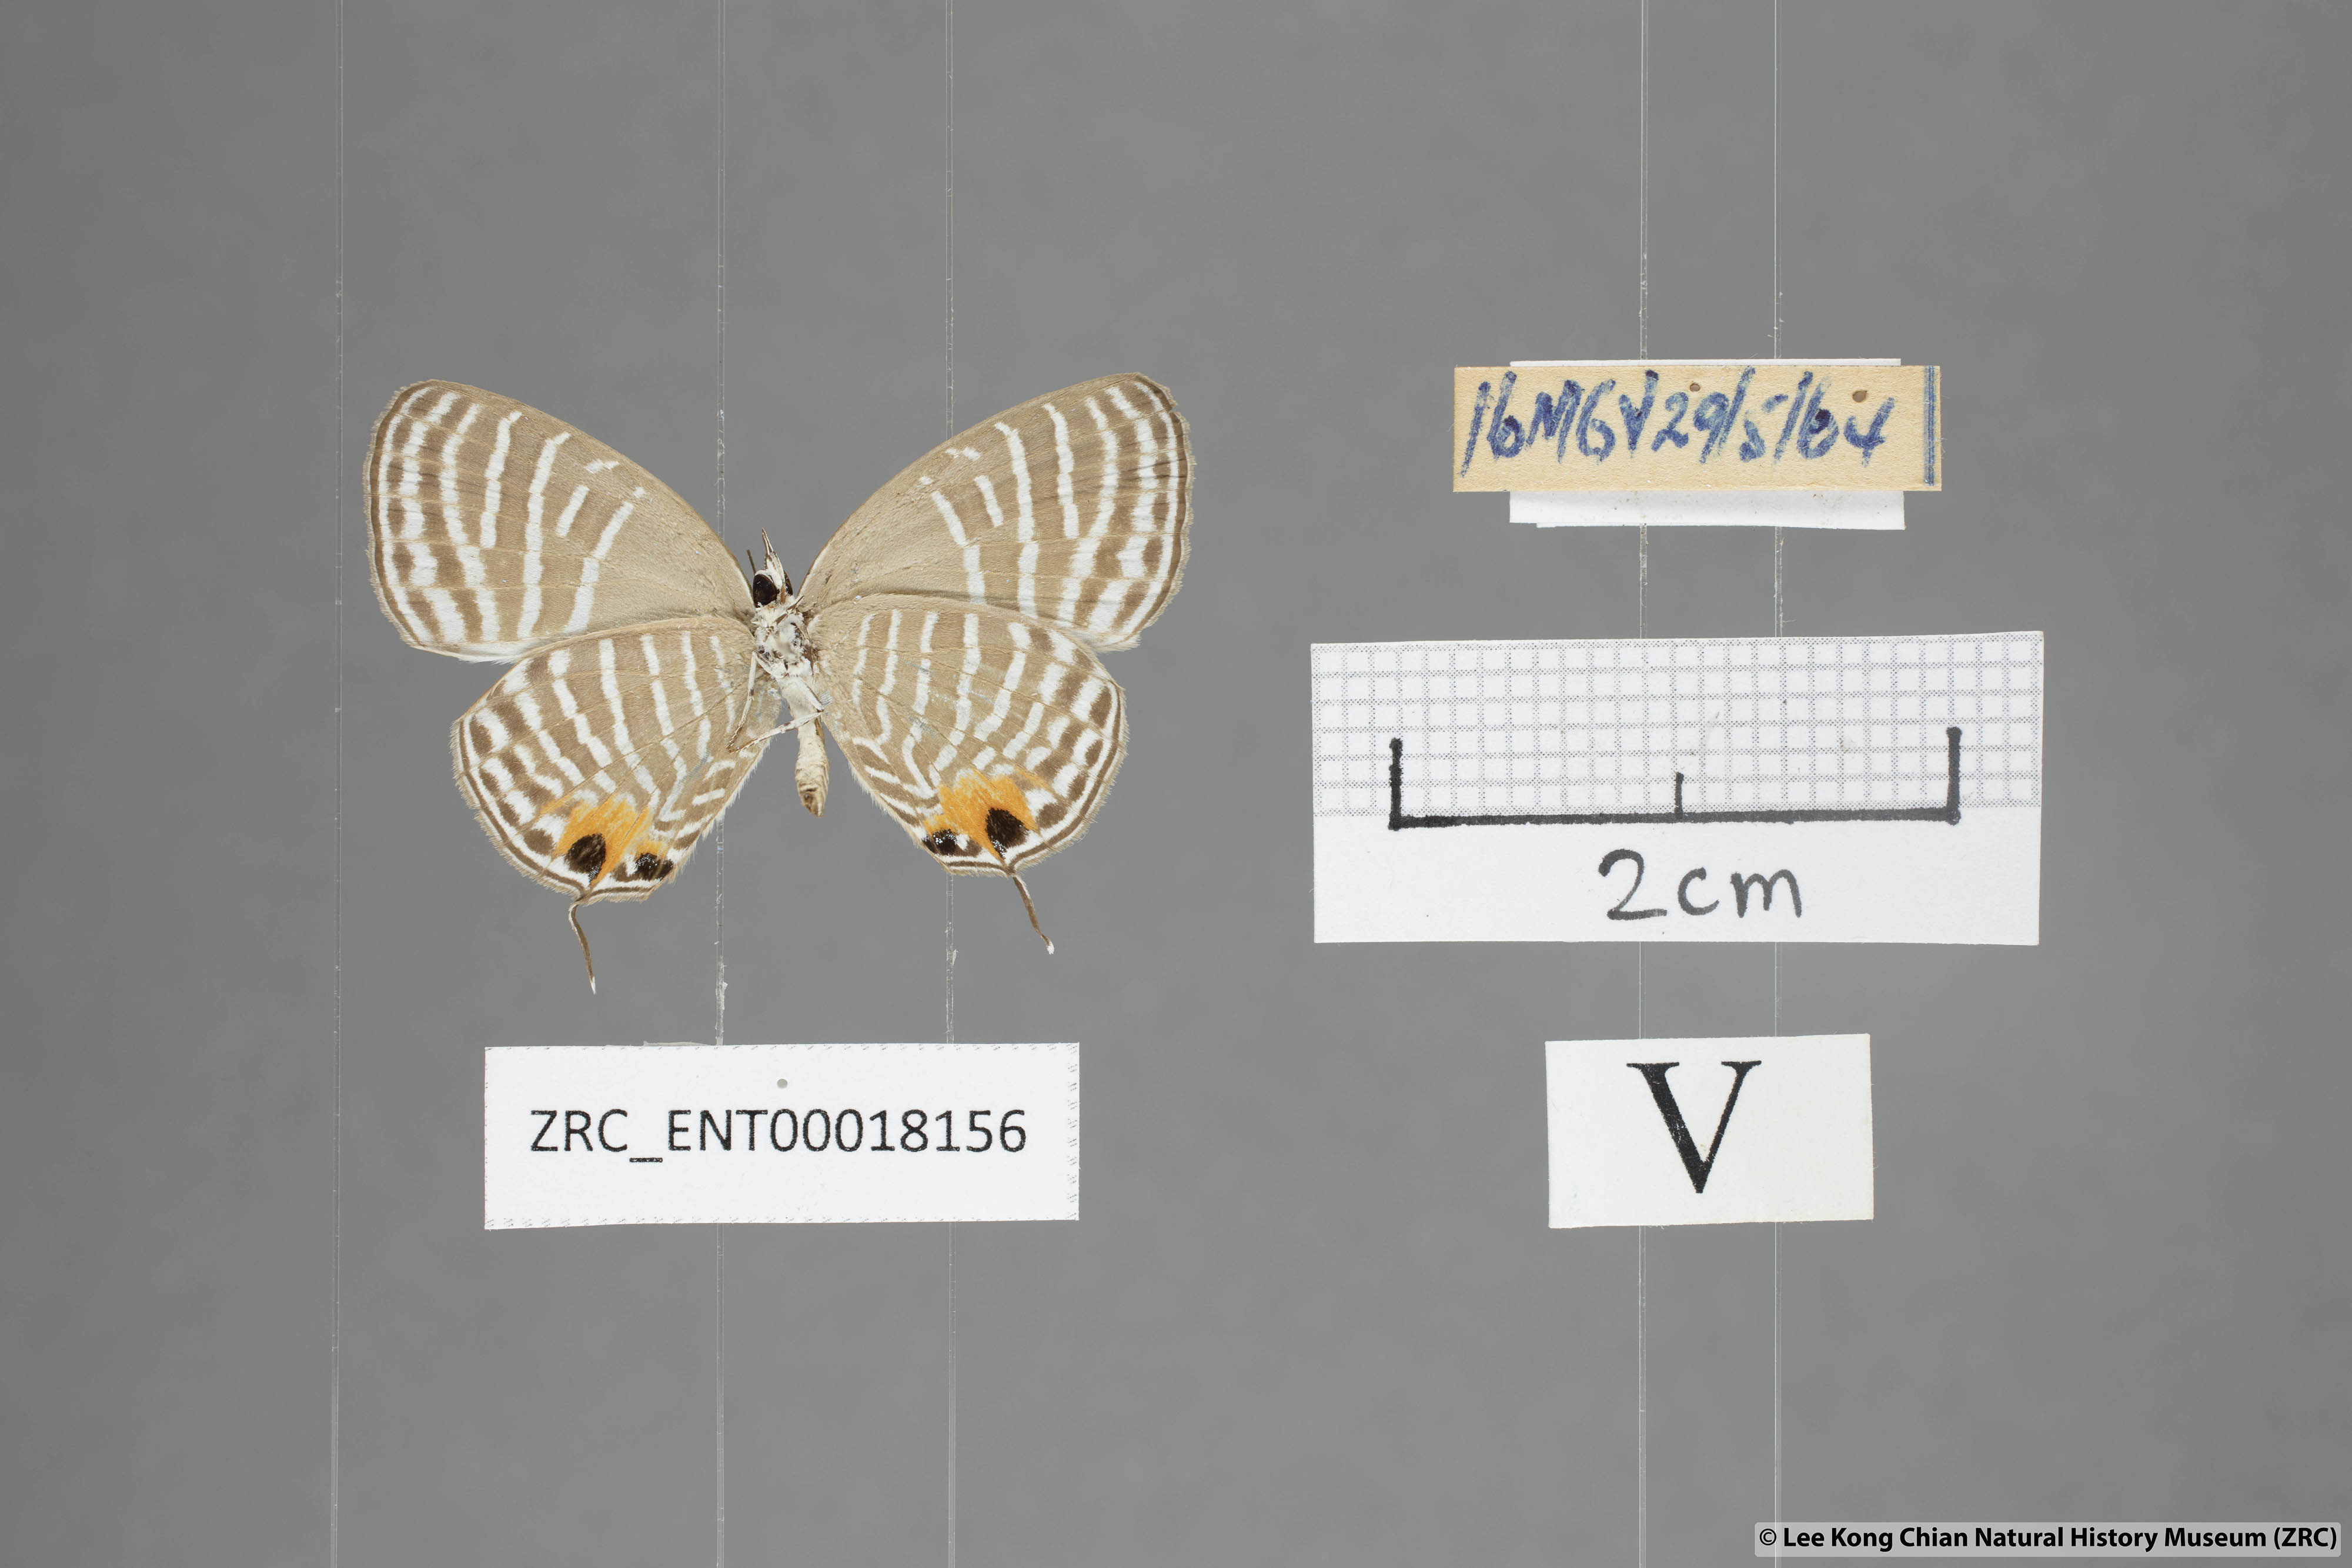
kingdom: Animalia
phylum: Arthropoda
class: Insecta
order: Lepidoptera
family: Lycaenidae
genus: Jamides
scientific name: Jamides parasaturata
